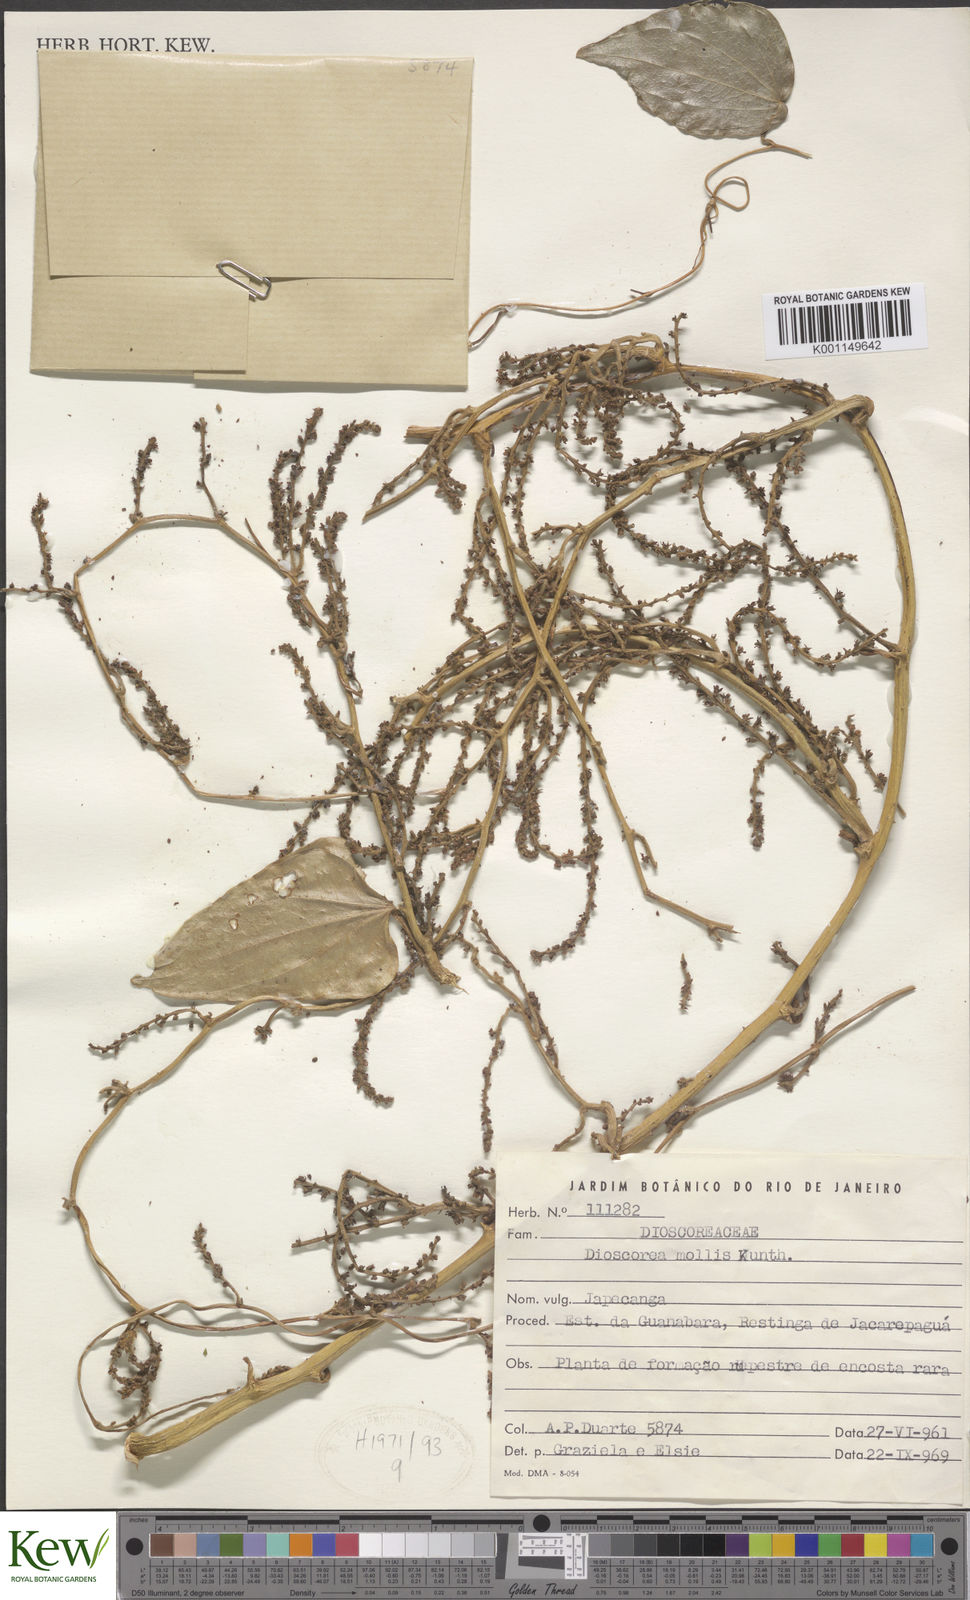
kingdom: Plantae
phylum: Tracheophyta
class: Liliopsida
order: Dioscoreales
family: Dioscoreaceae
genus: Dioscorea
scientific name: Dioscorea mollis
